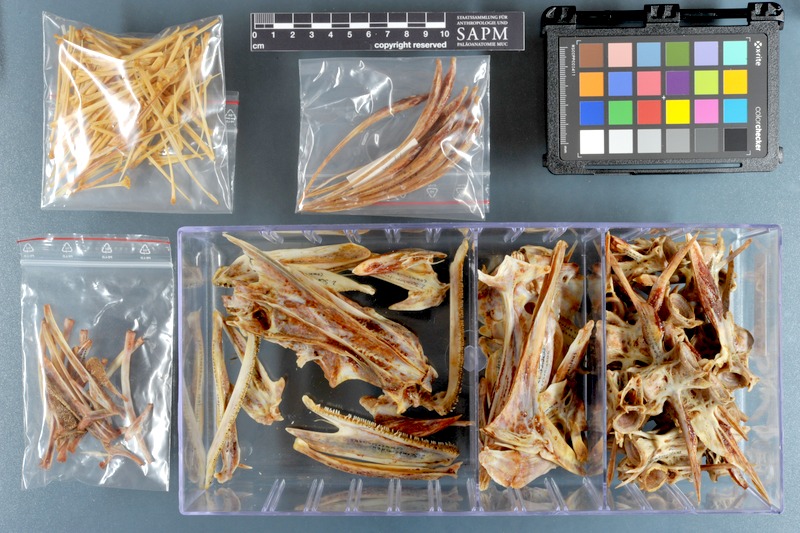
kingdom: Animalia
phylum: Chordata
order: Perciformes
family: Carangidae
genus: Scomberoides
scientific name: Scomberoides commersonnianus
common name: Talang queenfish
